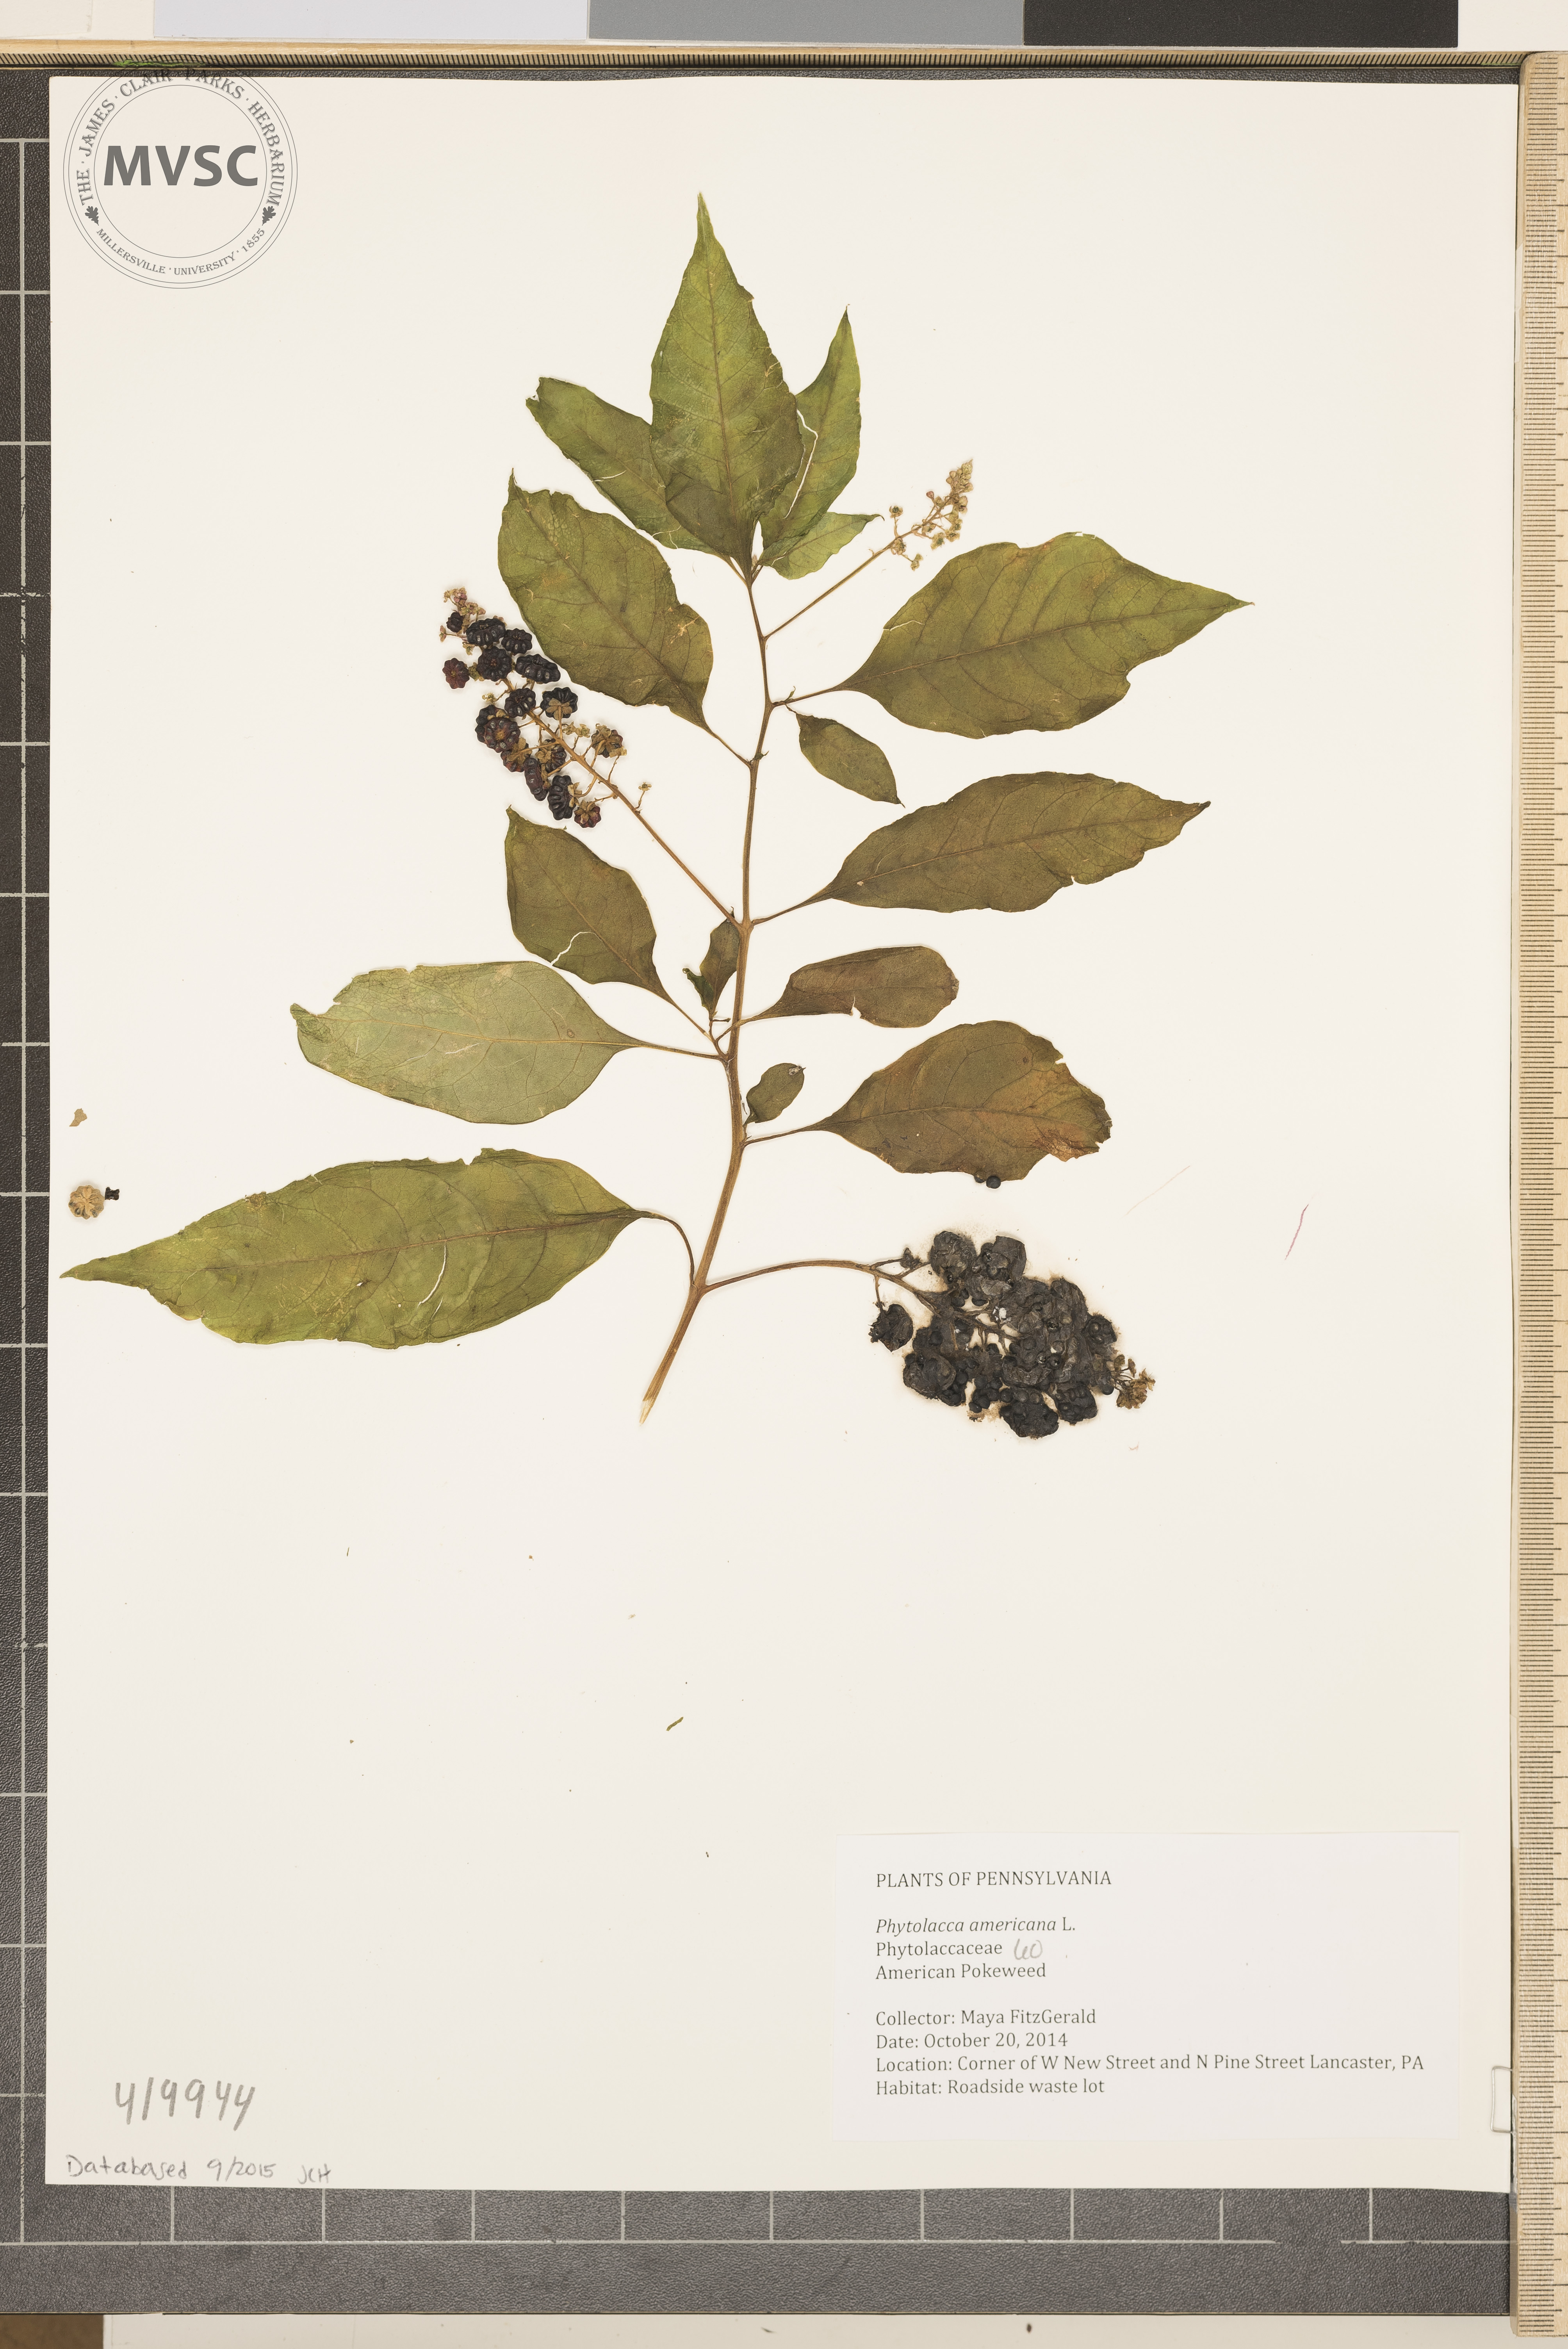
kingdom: Plantae
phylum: Tracheophyta
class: Magnoliopsida
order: Caryophyllales
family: Phytolaccaceae
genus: Phytolacca
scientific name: Phytolacca americana
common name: American Pokeweed
